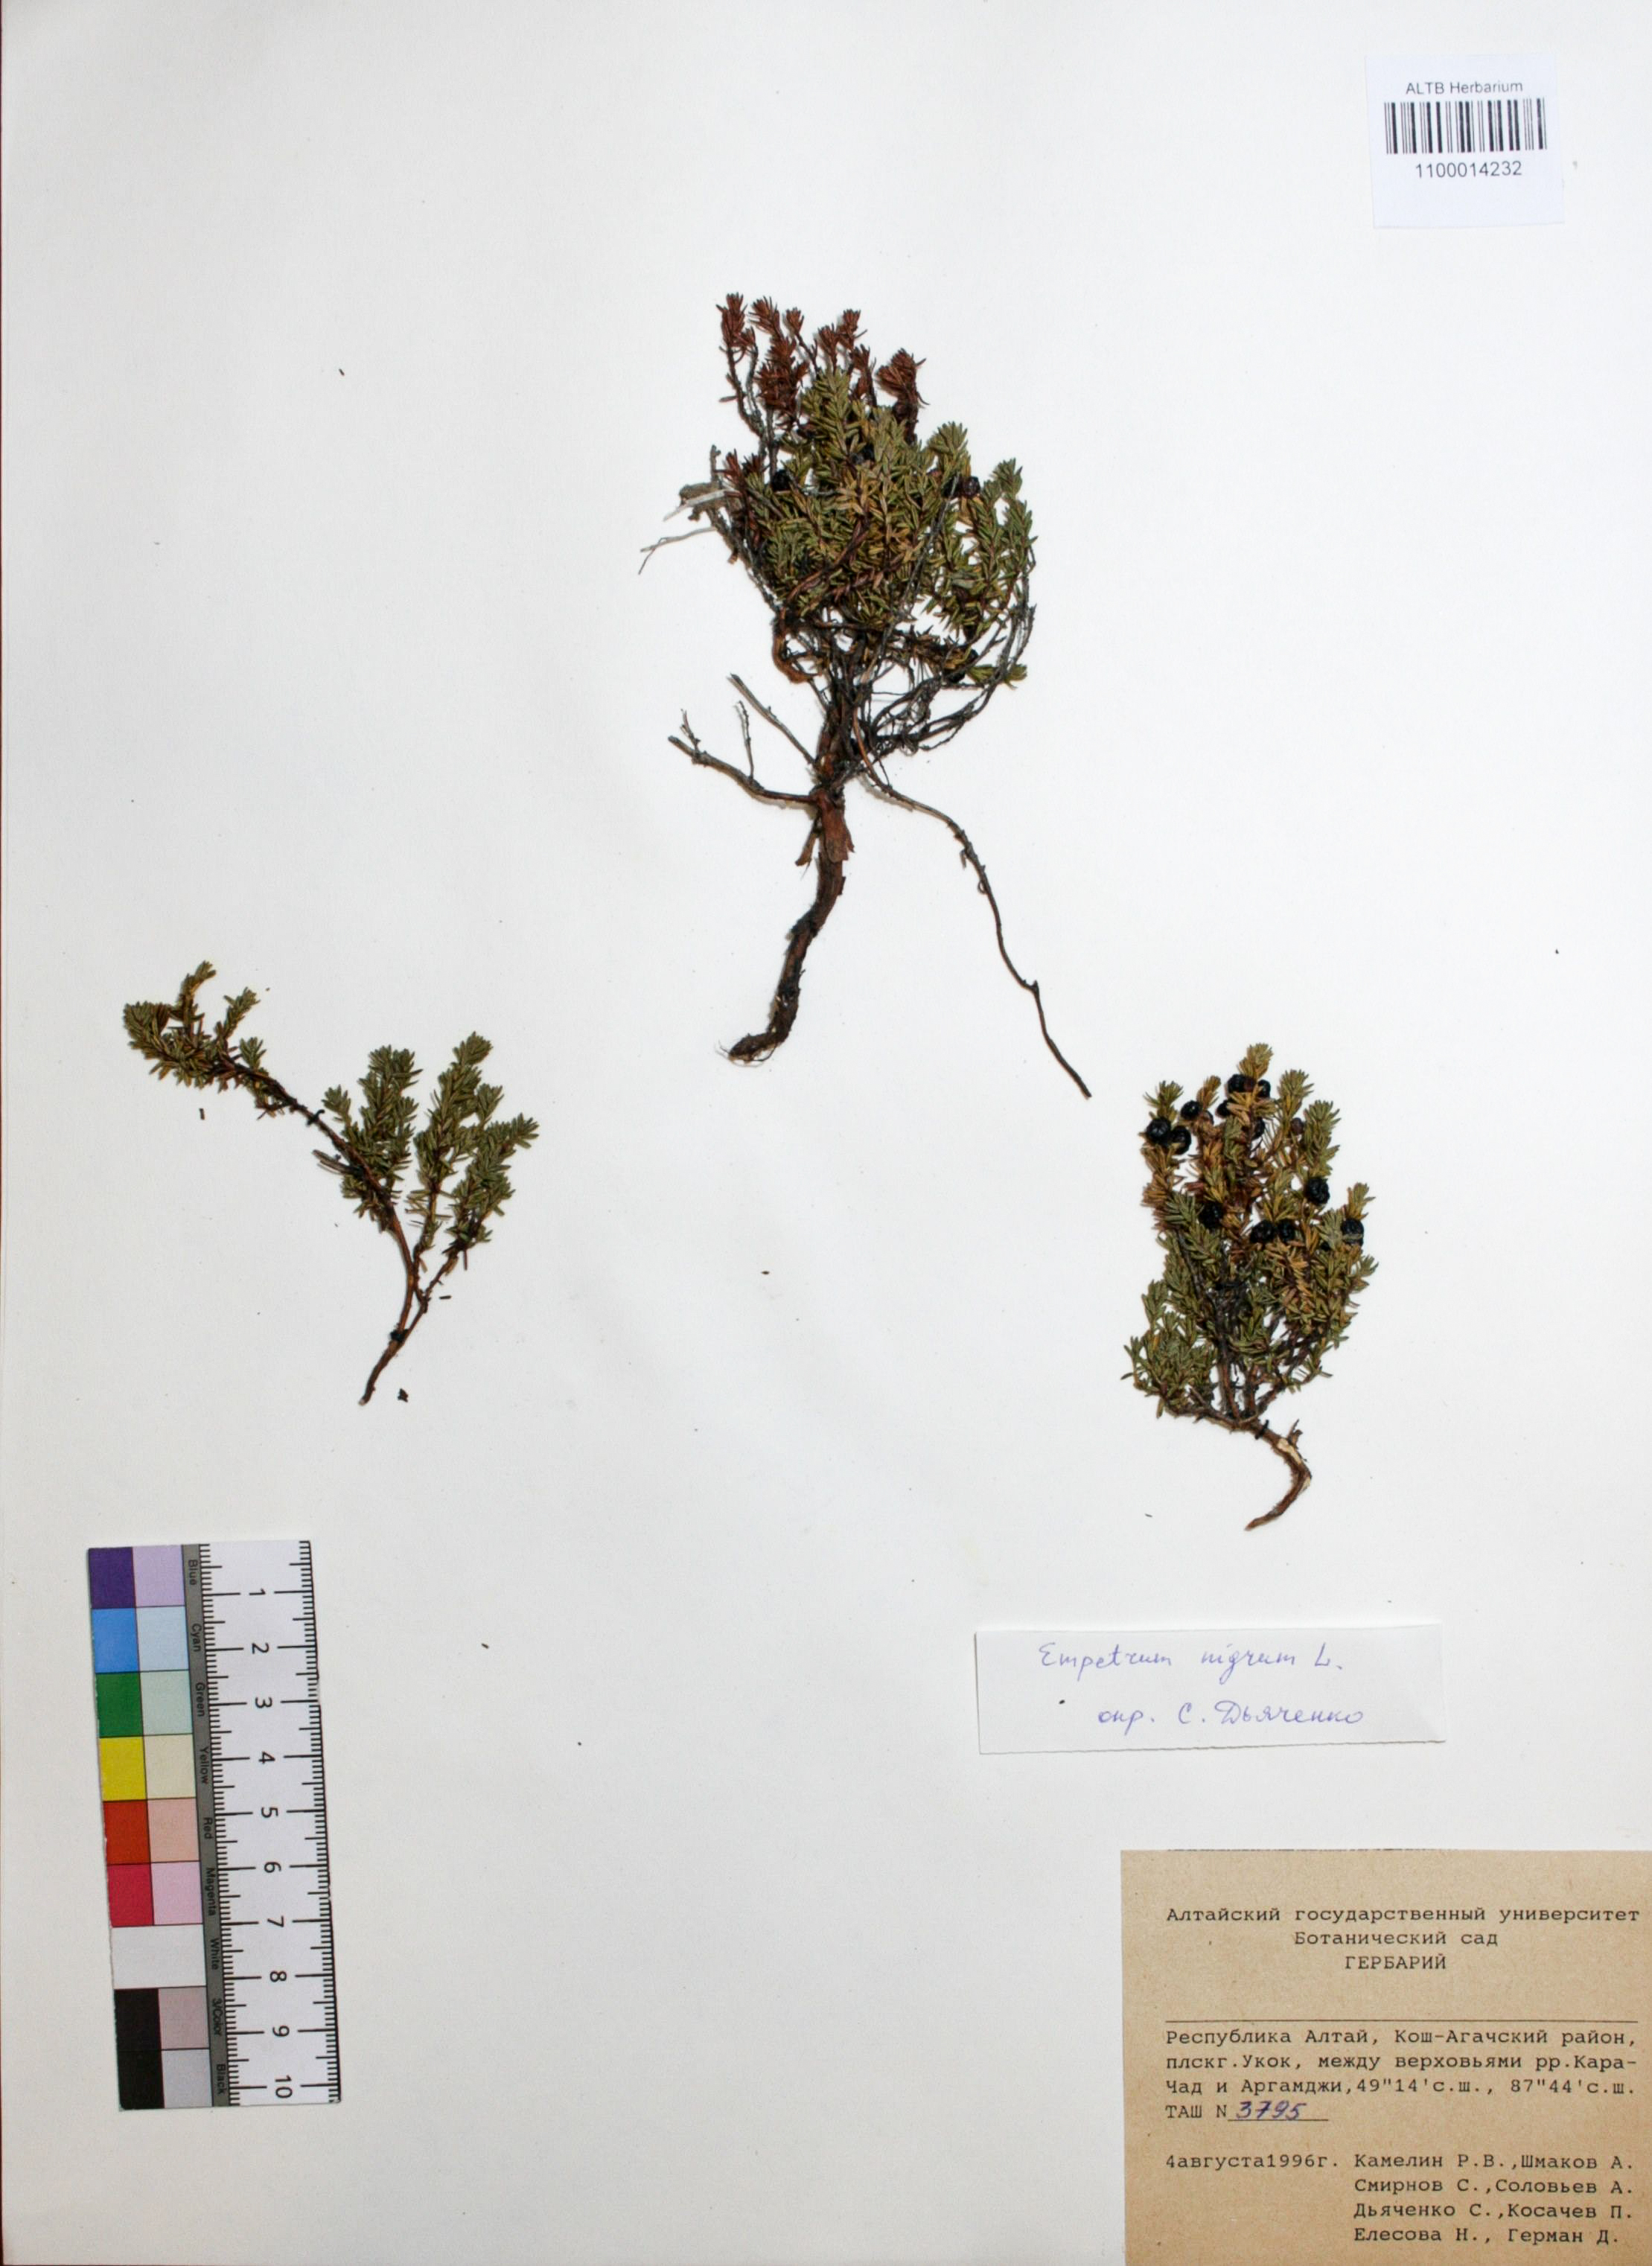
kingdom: Plantae
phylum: Tracheophyta
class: Magnoliopsida
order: Ericales
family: Ericaceae
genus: Empetrum
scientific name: Empetrum nigrum
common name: Black crowberry
